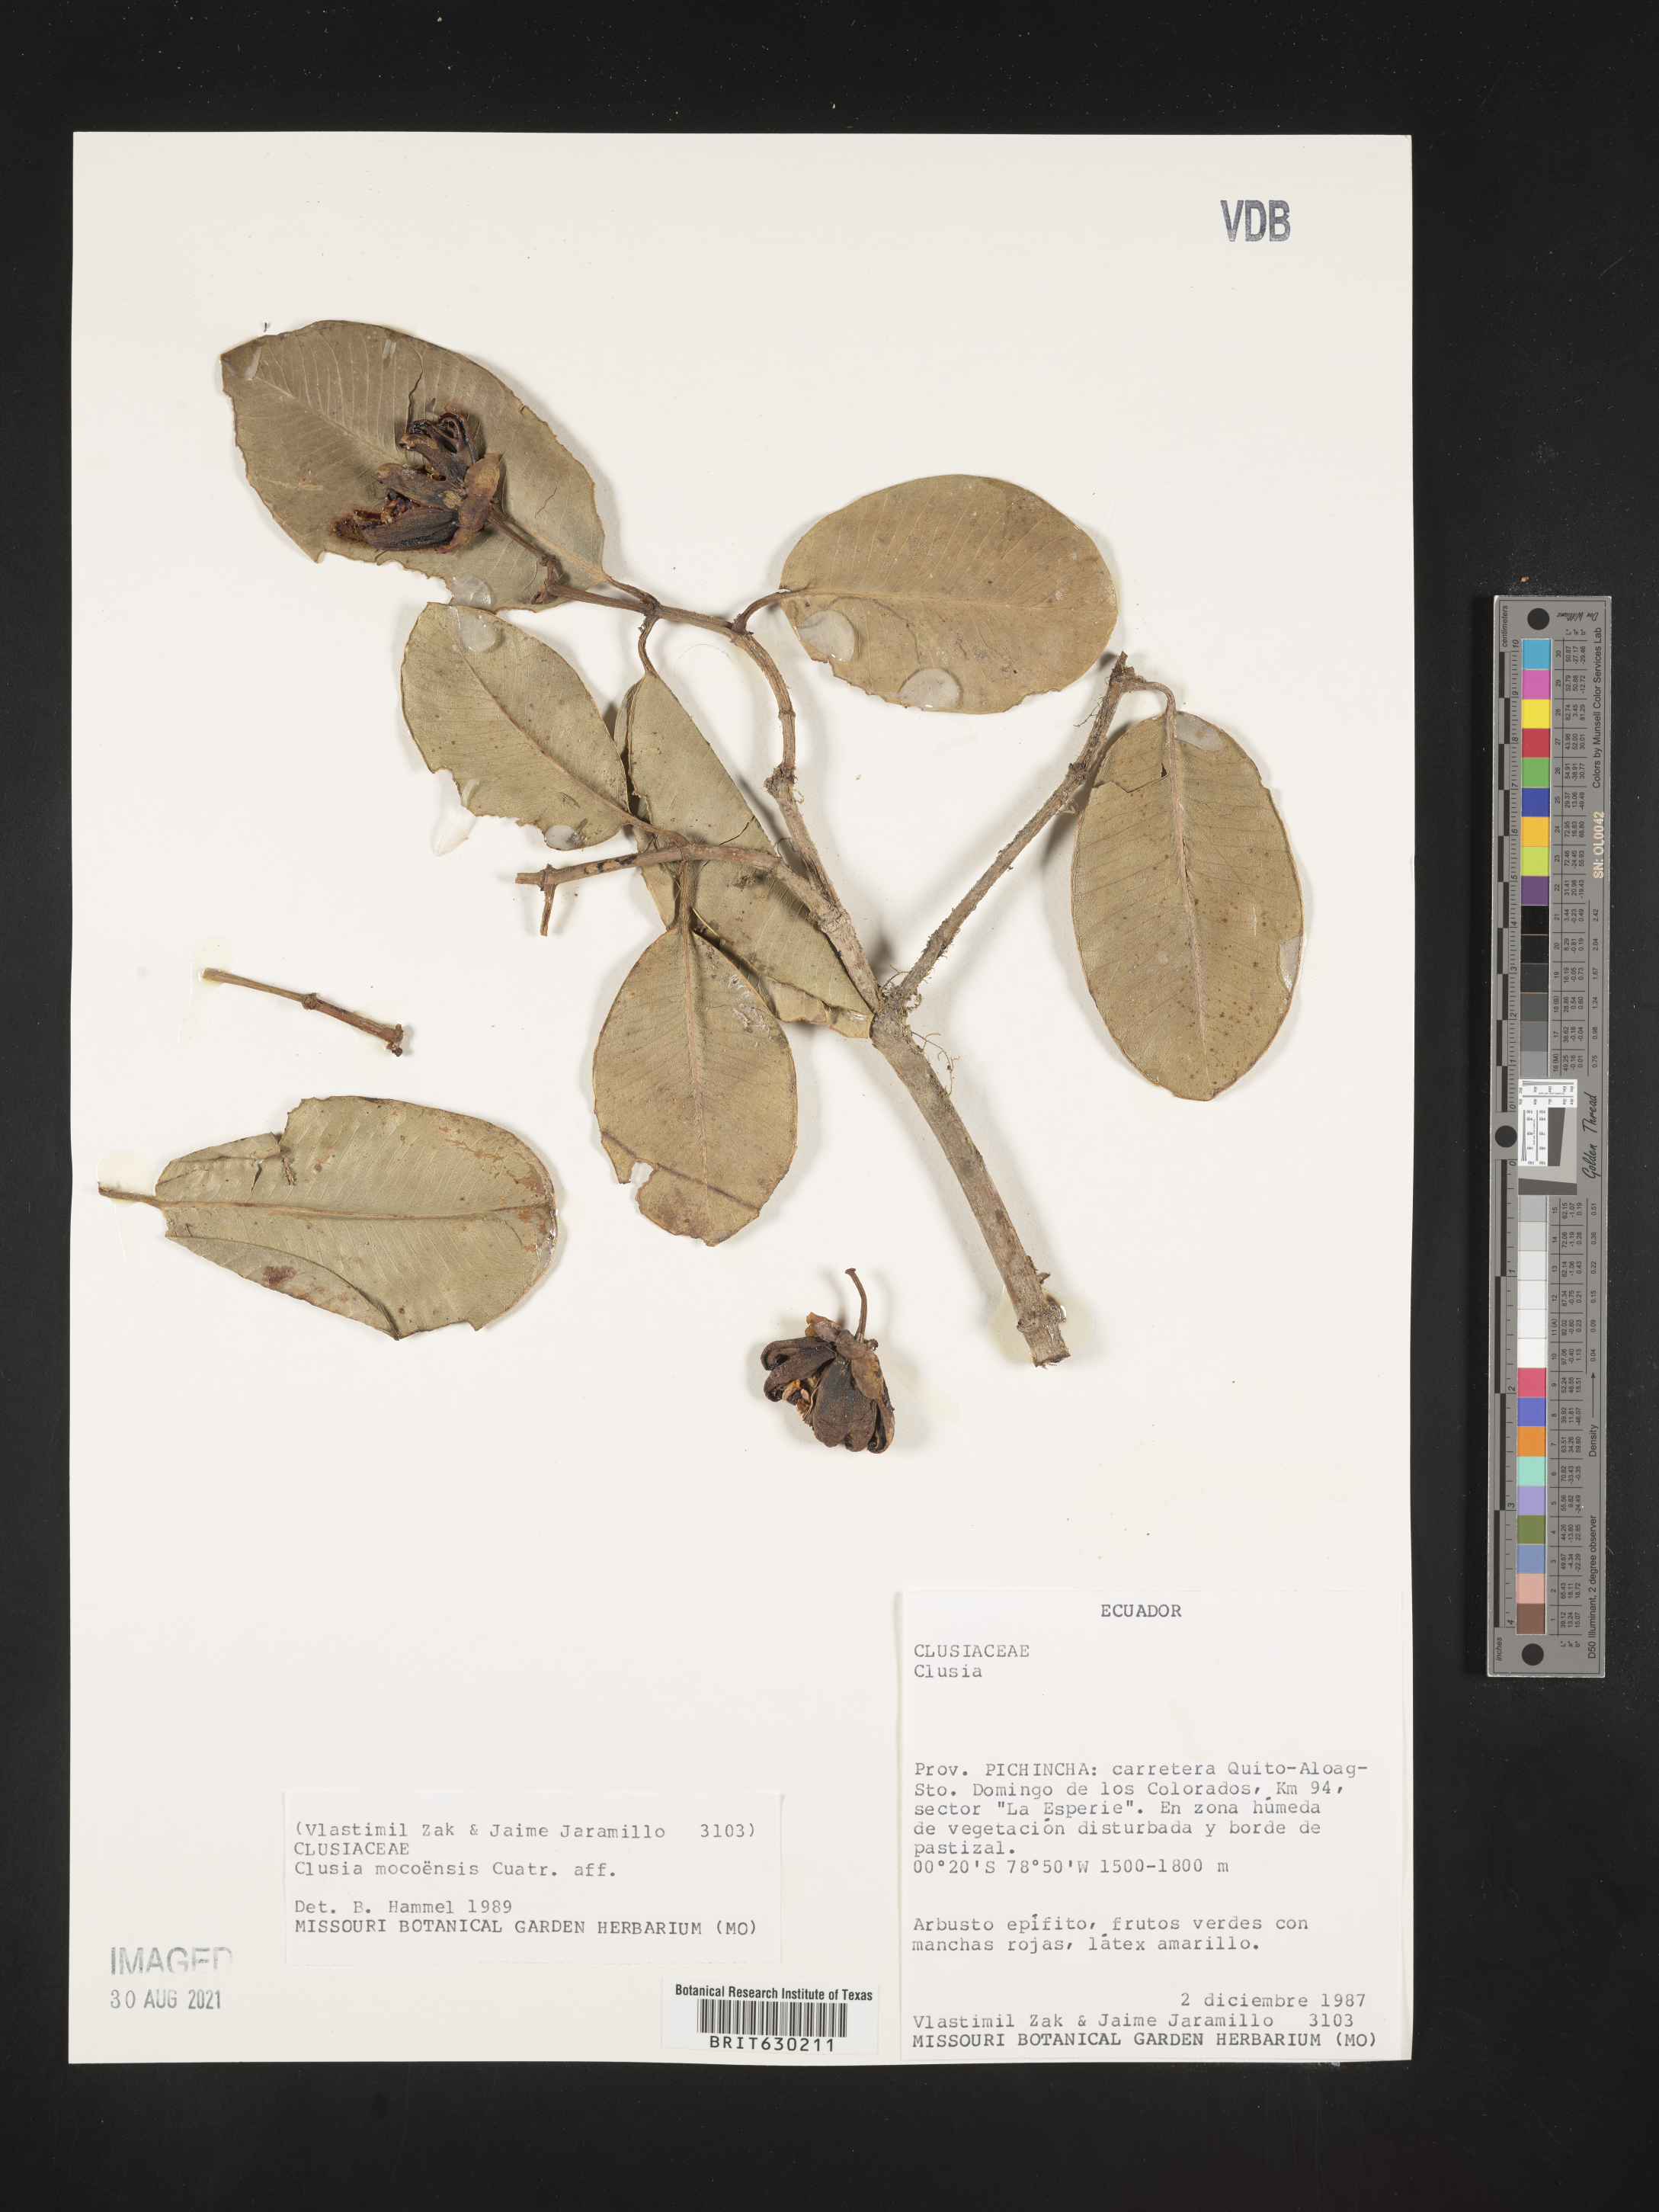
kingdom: Plantae
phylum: Tracheophyta
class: Magnoliopsida
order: Malpighiales
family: Clusiaceae
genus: Clusia
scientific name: Clusia mocoensis
